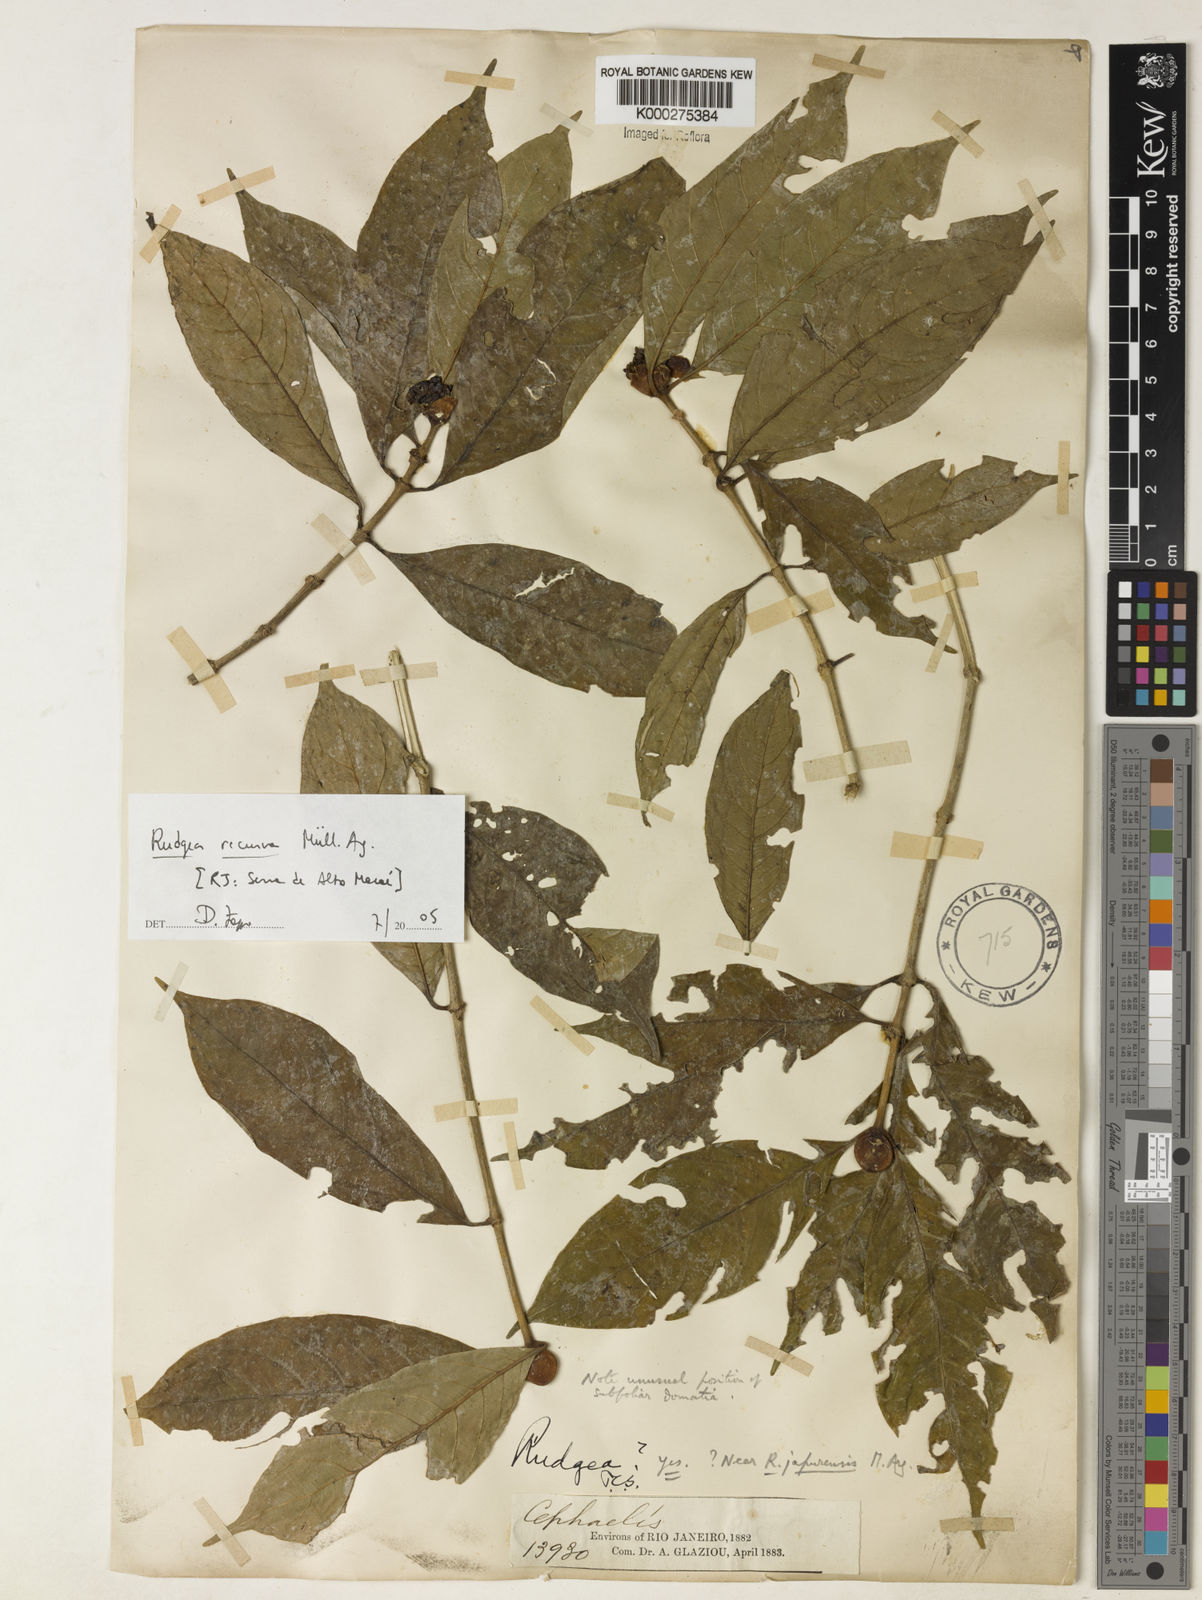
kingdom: Plantae
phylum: Tracheophyta
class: Magnoliopsida
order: Gentianales
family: Rubiaceae
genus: Rudgea
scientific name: Rudgea recurva
